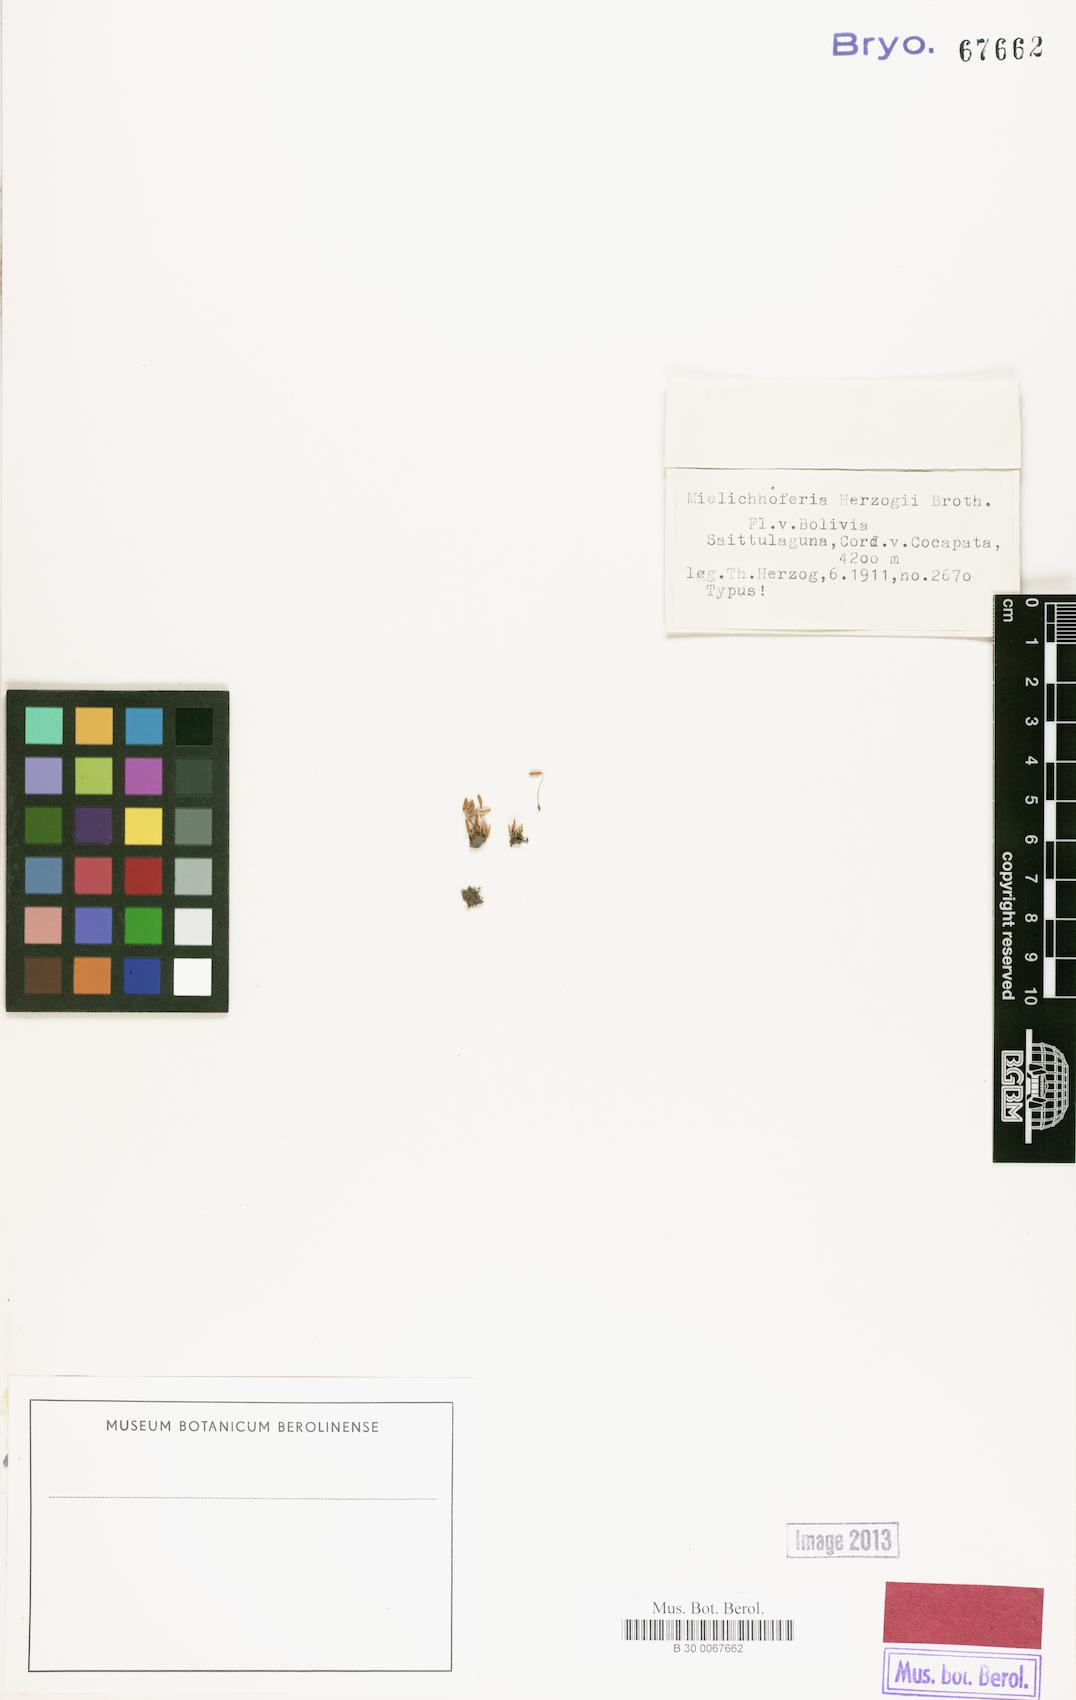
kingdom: Plantae
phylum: Bryophyta
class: Bryopsida
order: Bryales
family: Mniaceae
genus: Mielichhoferia
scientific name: Mielichhoferia herzogii
